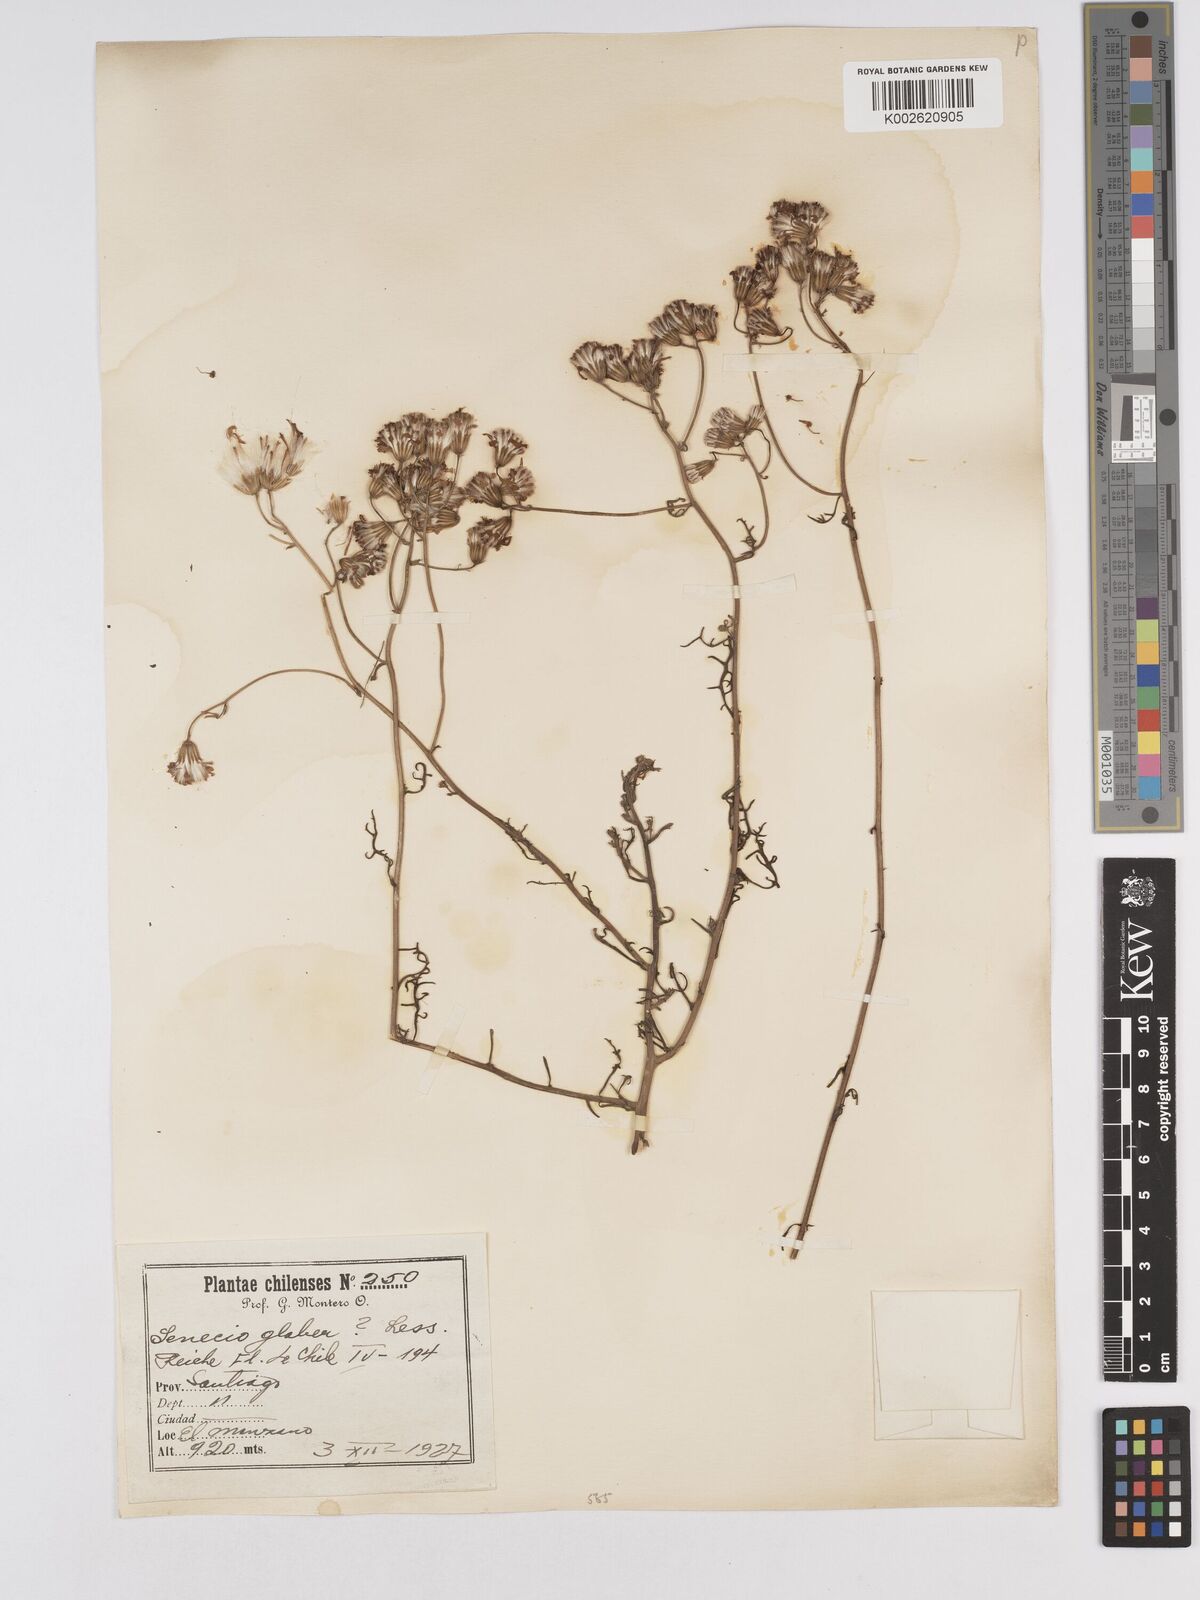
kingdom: Plantae
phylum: Tracheophyta
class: Magnoliopsida
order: Asterales
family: Asteraceae
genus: Senecio
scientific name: Senecio glaber
